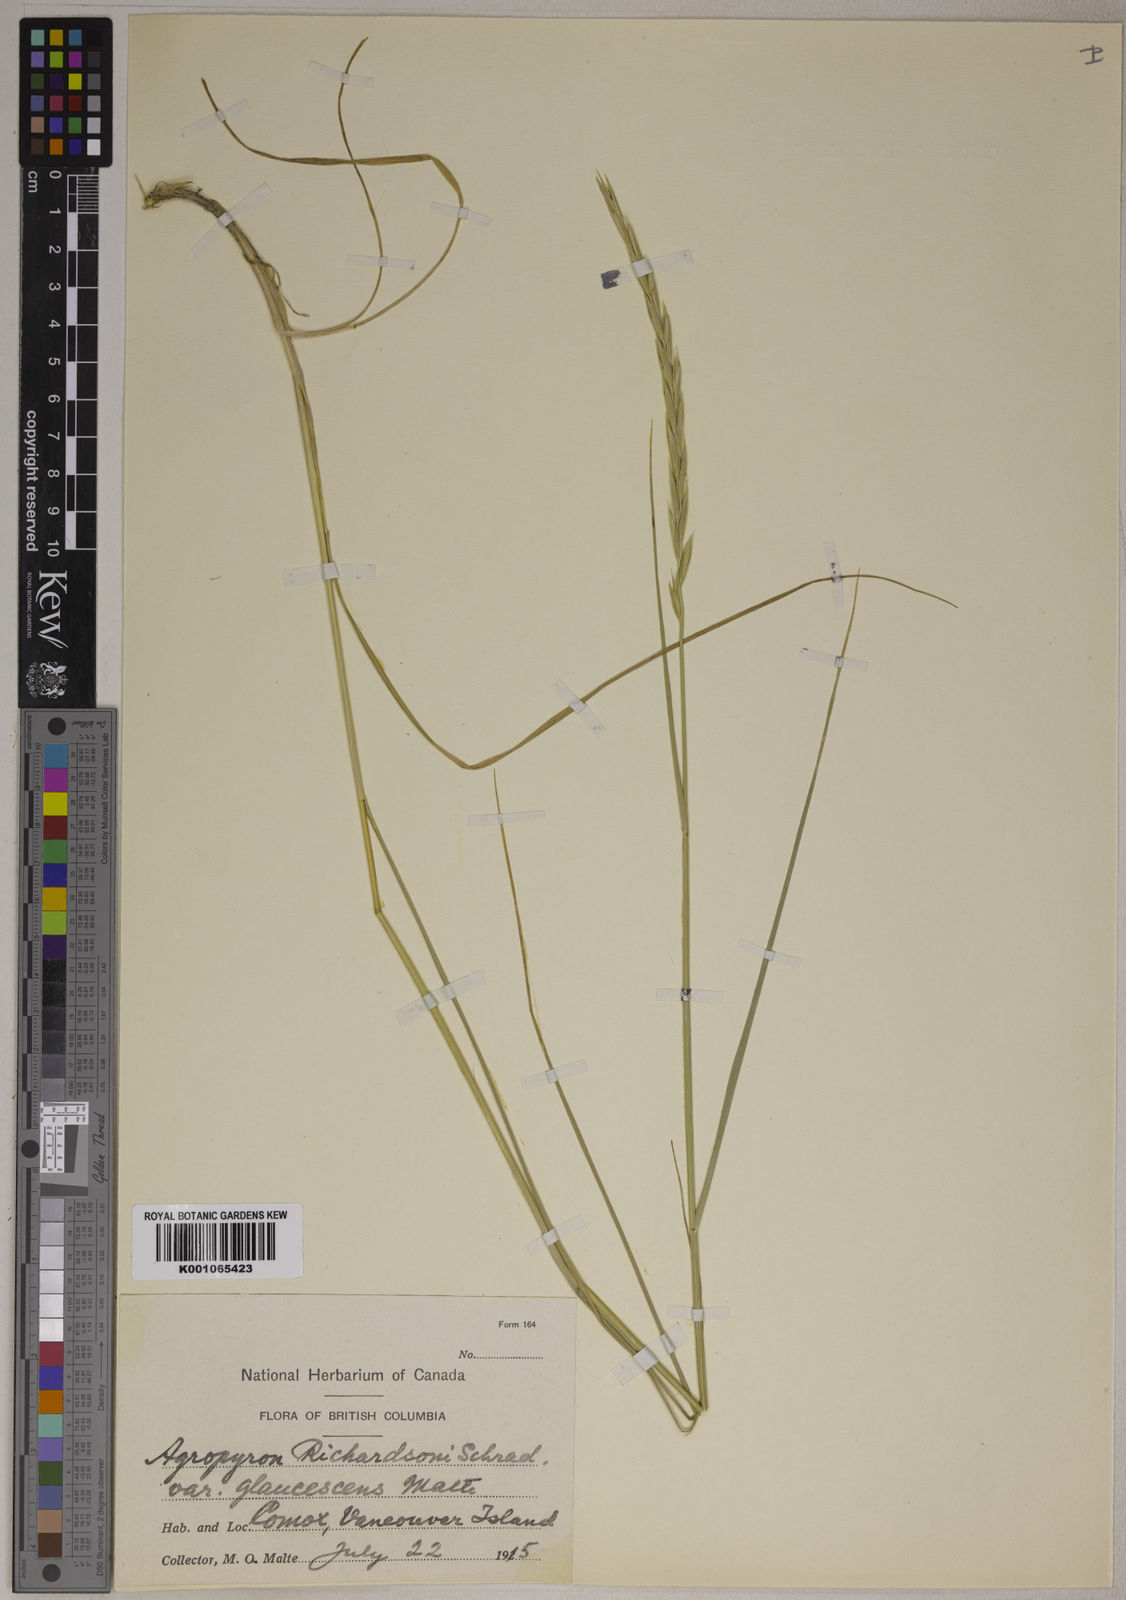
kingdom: Plantae
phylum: Tracheophyta
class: Liliopsida
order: Poales
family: Poaceae
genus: Elymus
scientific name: Elymus
